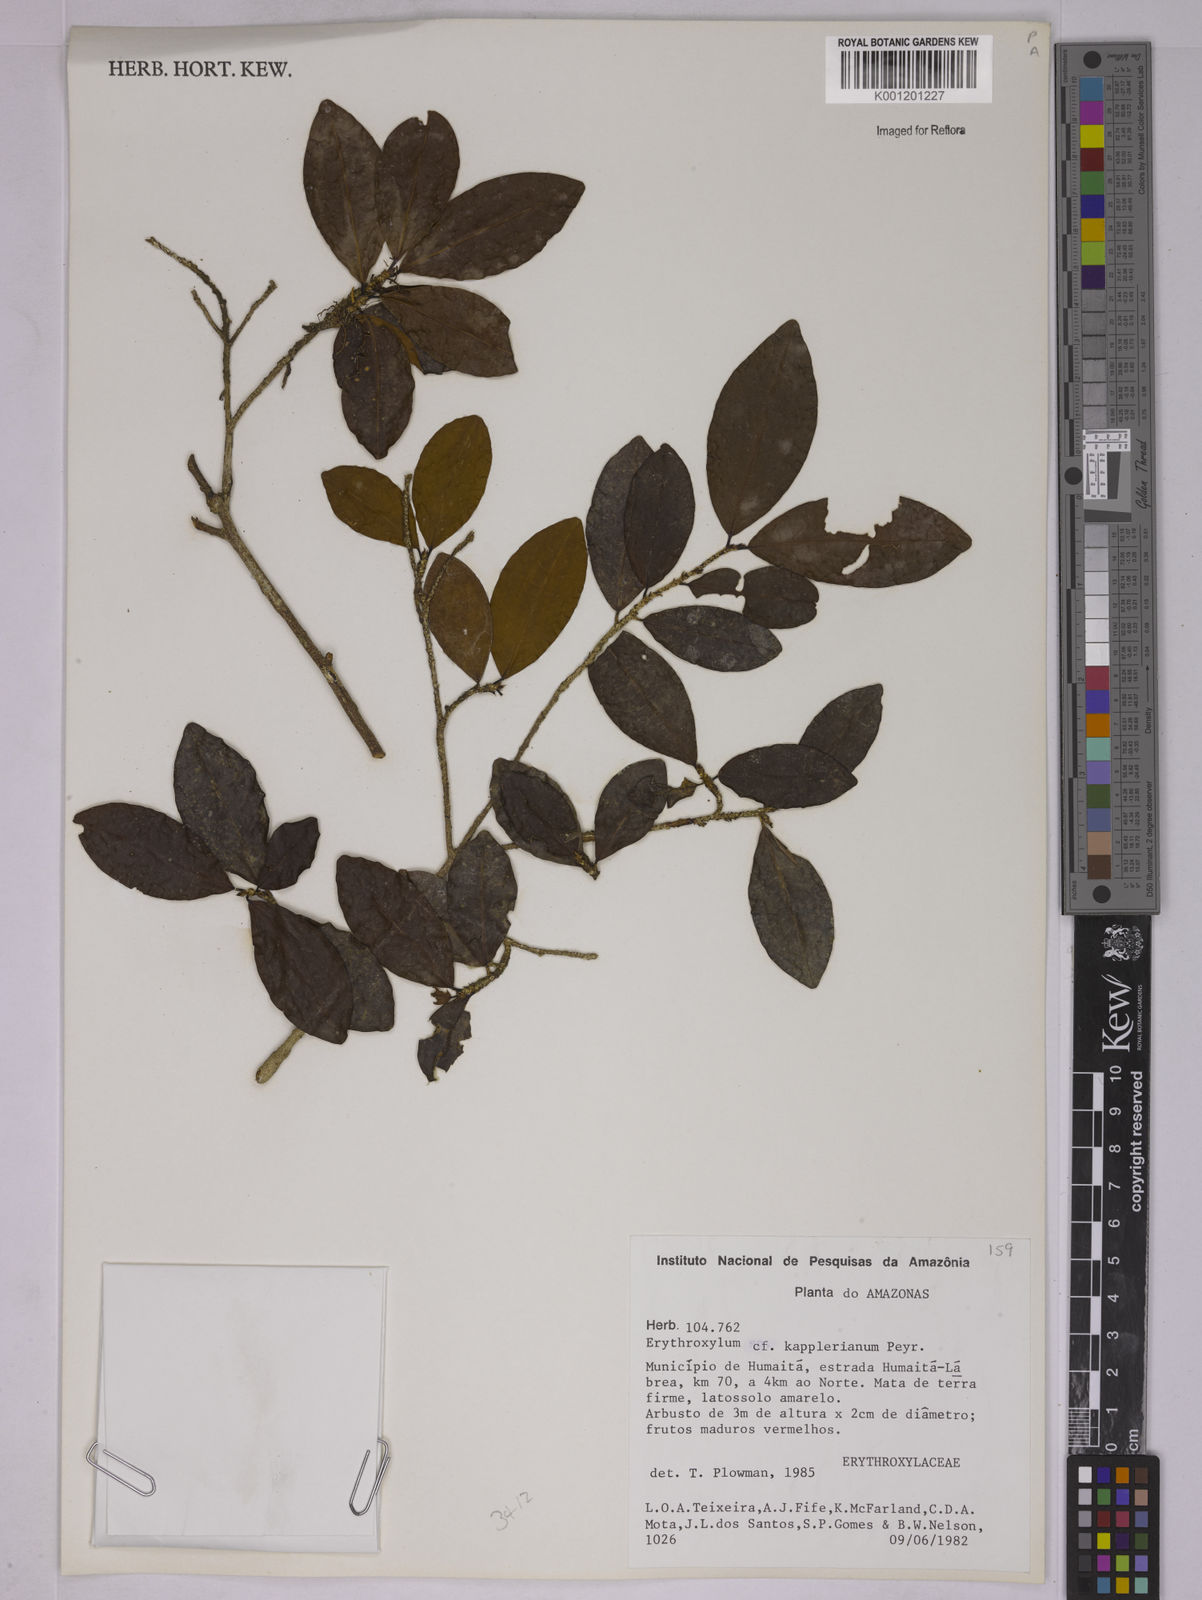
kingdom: Plantae
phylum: Tracheophyta
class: Magnoliopsida
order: Malpighiales
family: Erythroxylaceae
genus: Erythroxylum
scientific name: Erythroxylum kapplerianum
